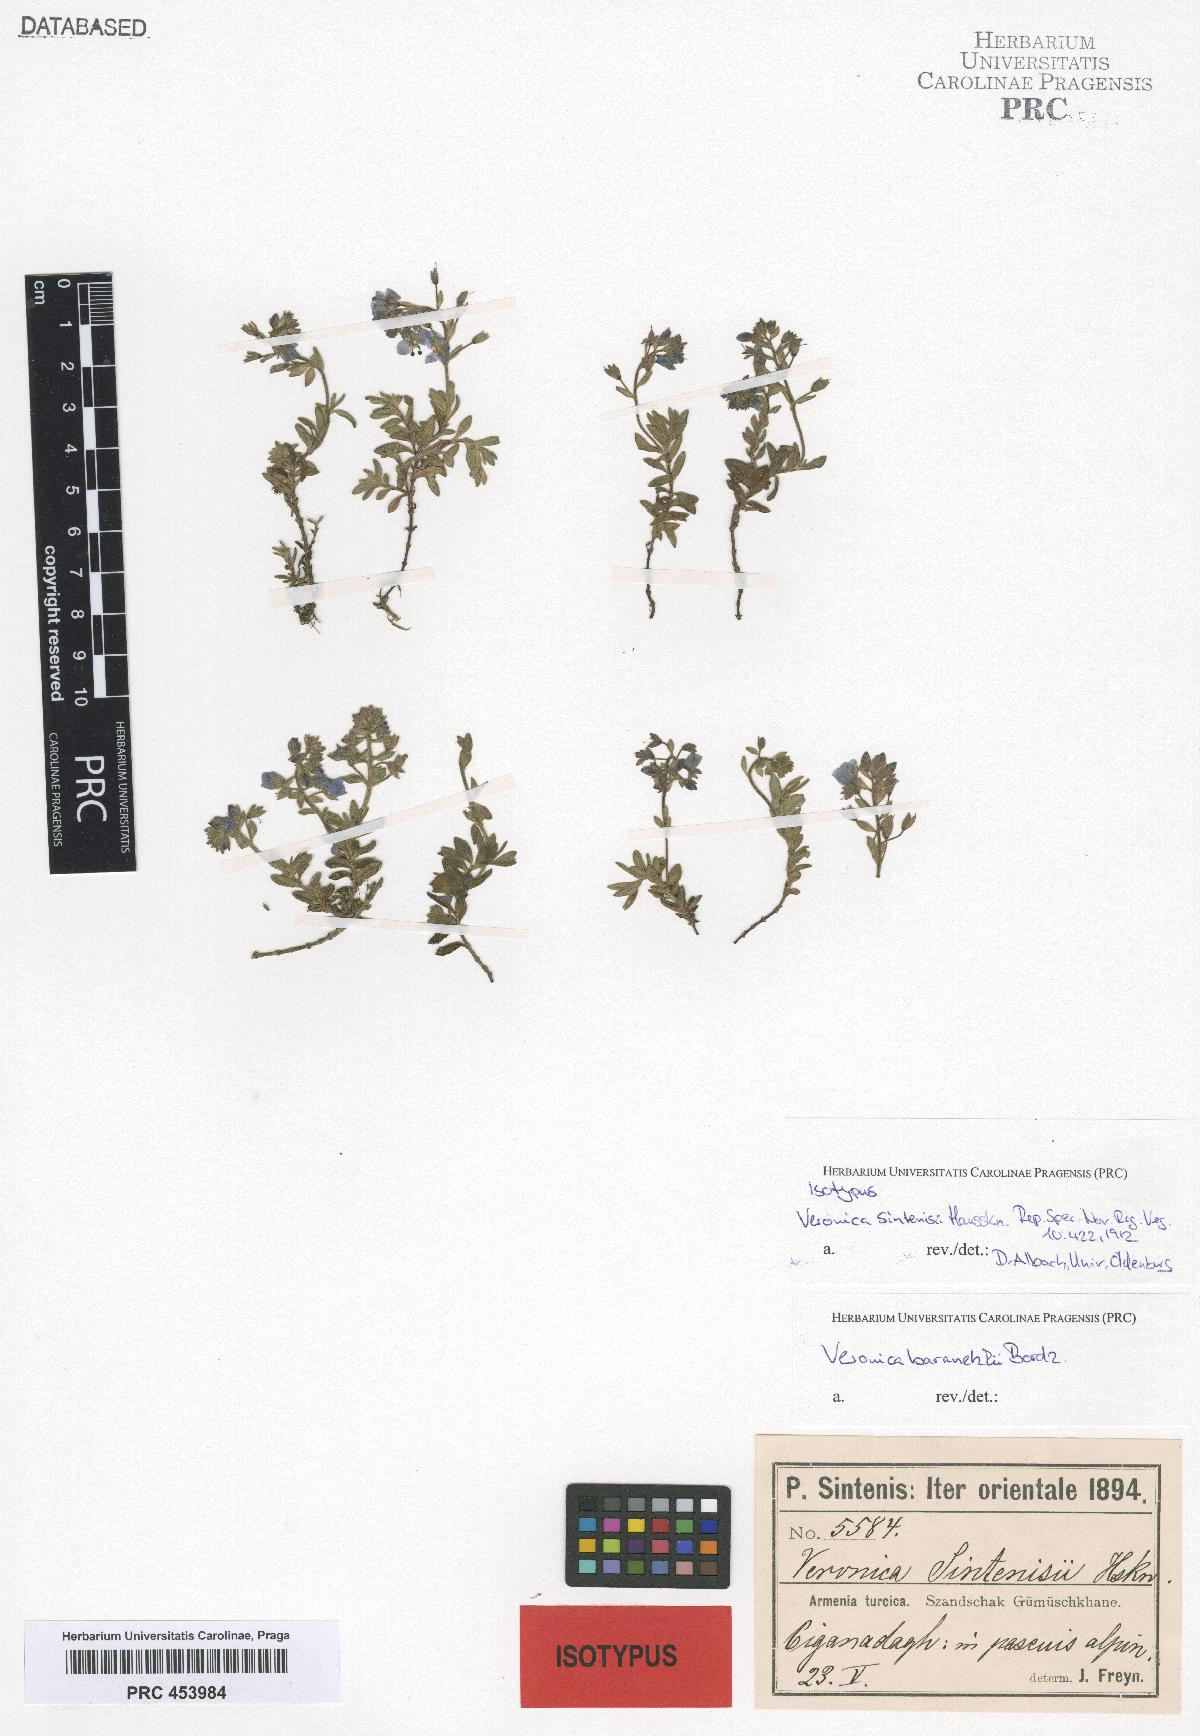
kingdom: Plantae
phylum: Tracheophyta
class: Magnoliopsida
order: Lamiales
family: Plantaginaceae
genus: Veronica
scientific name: Veronica denudata
